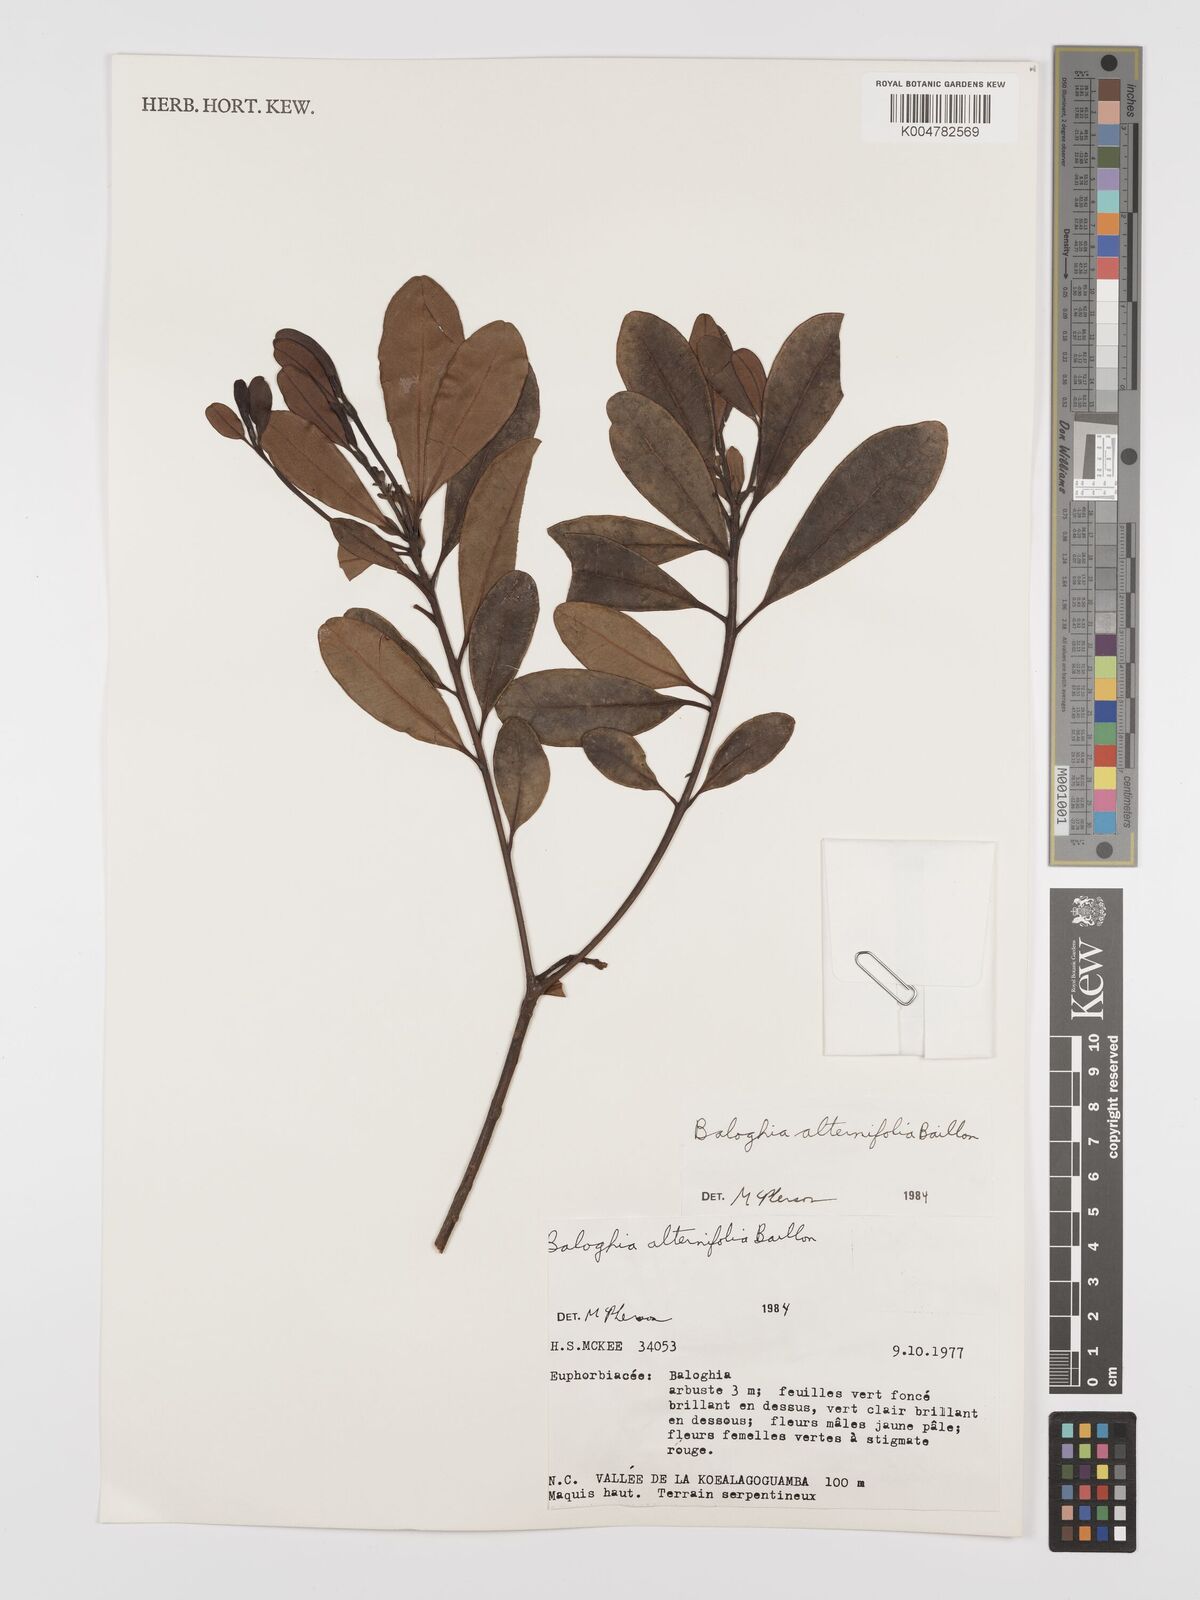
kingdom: Plantae
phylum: Tracheophyta
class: Magnoliopsida
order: Malpighiales
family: Euphorbiaceae
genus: Baloghia
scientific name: Baloghia alternifolia
